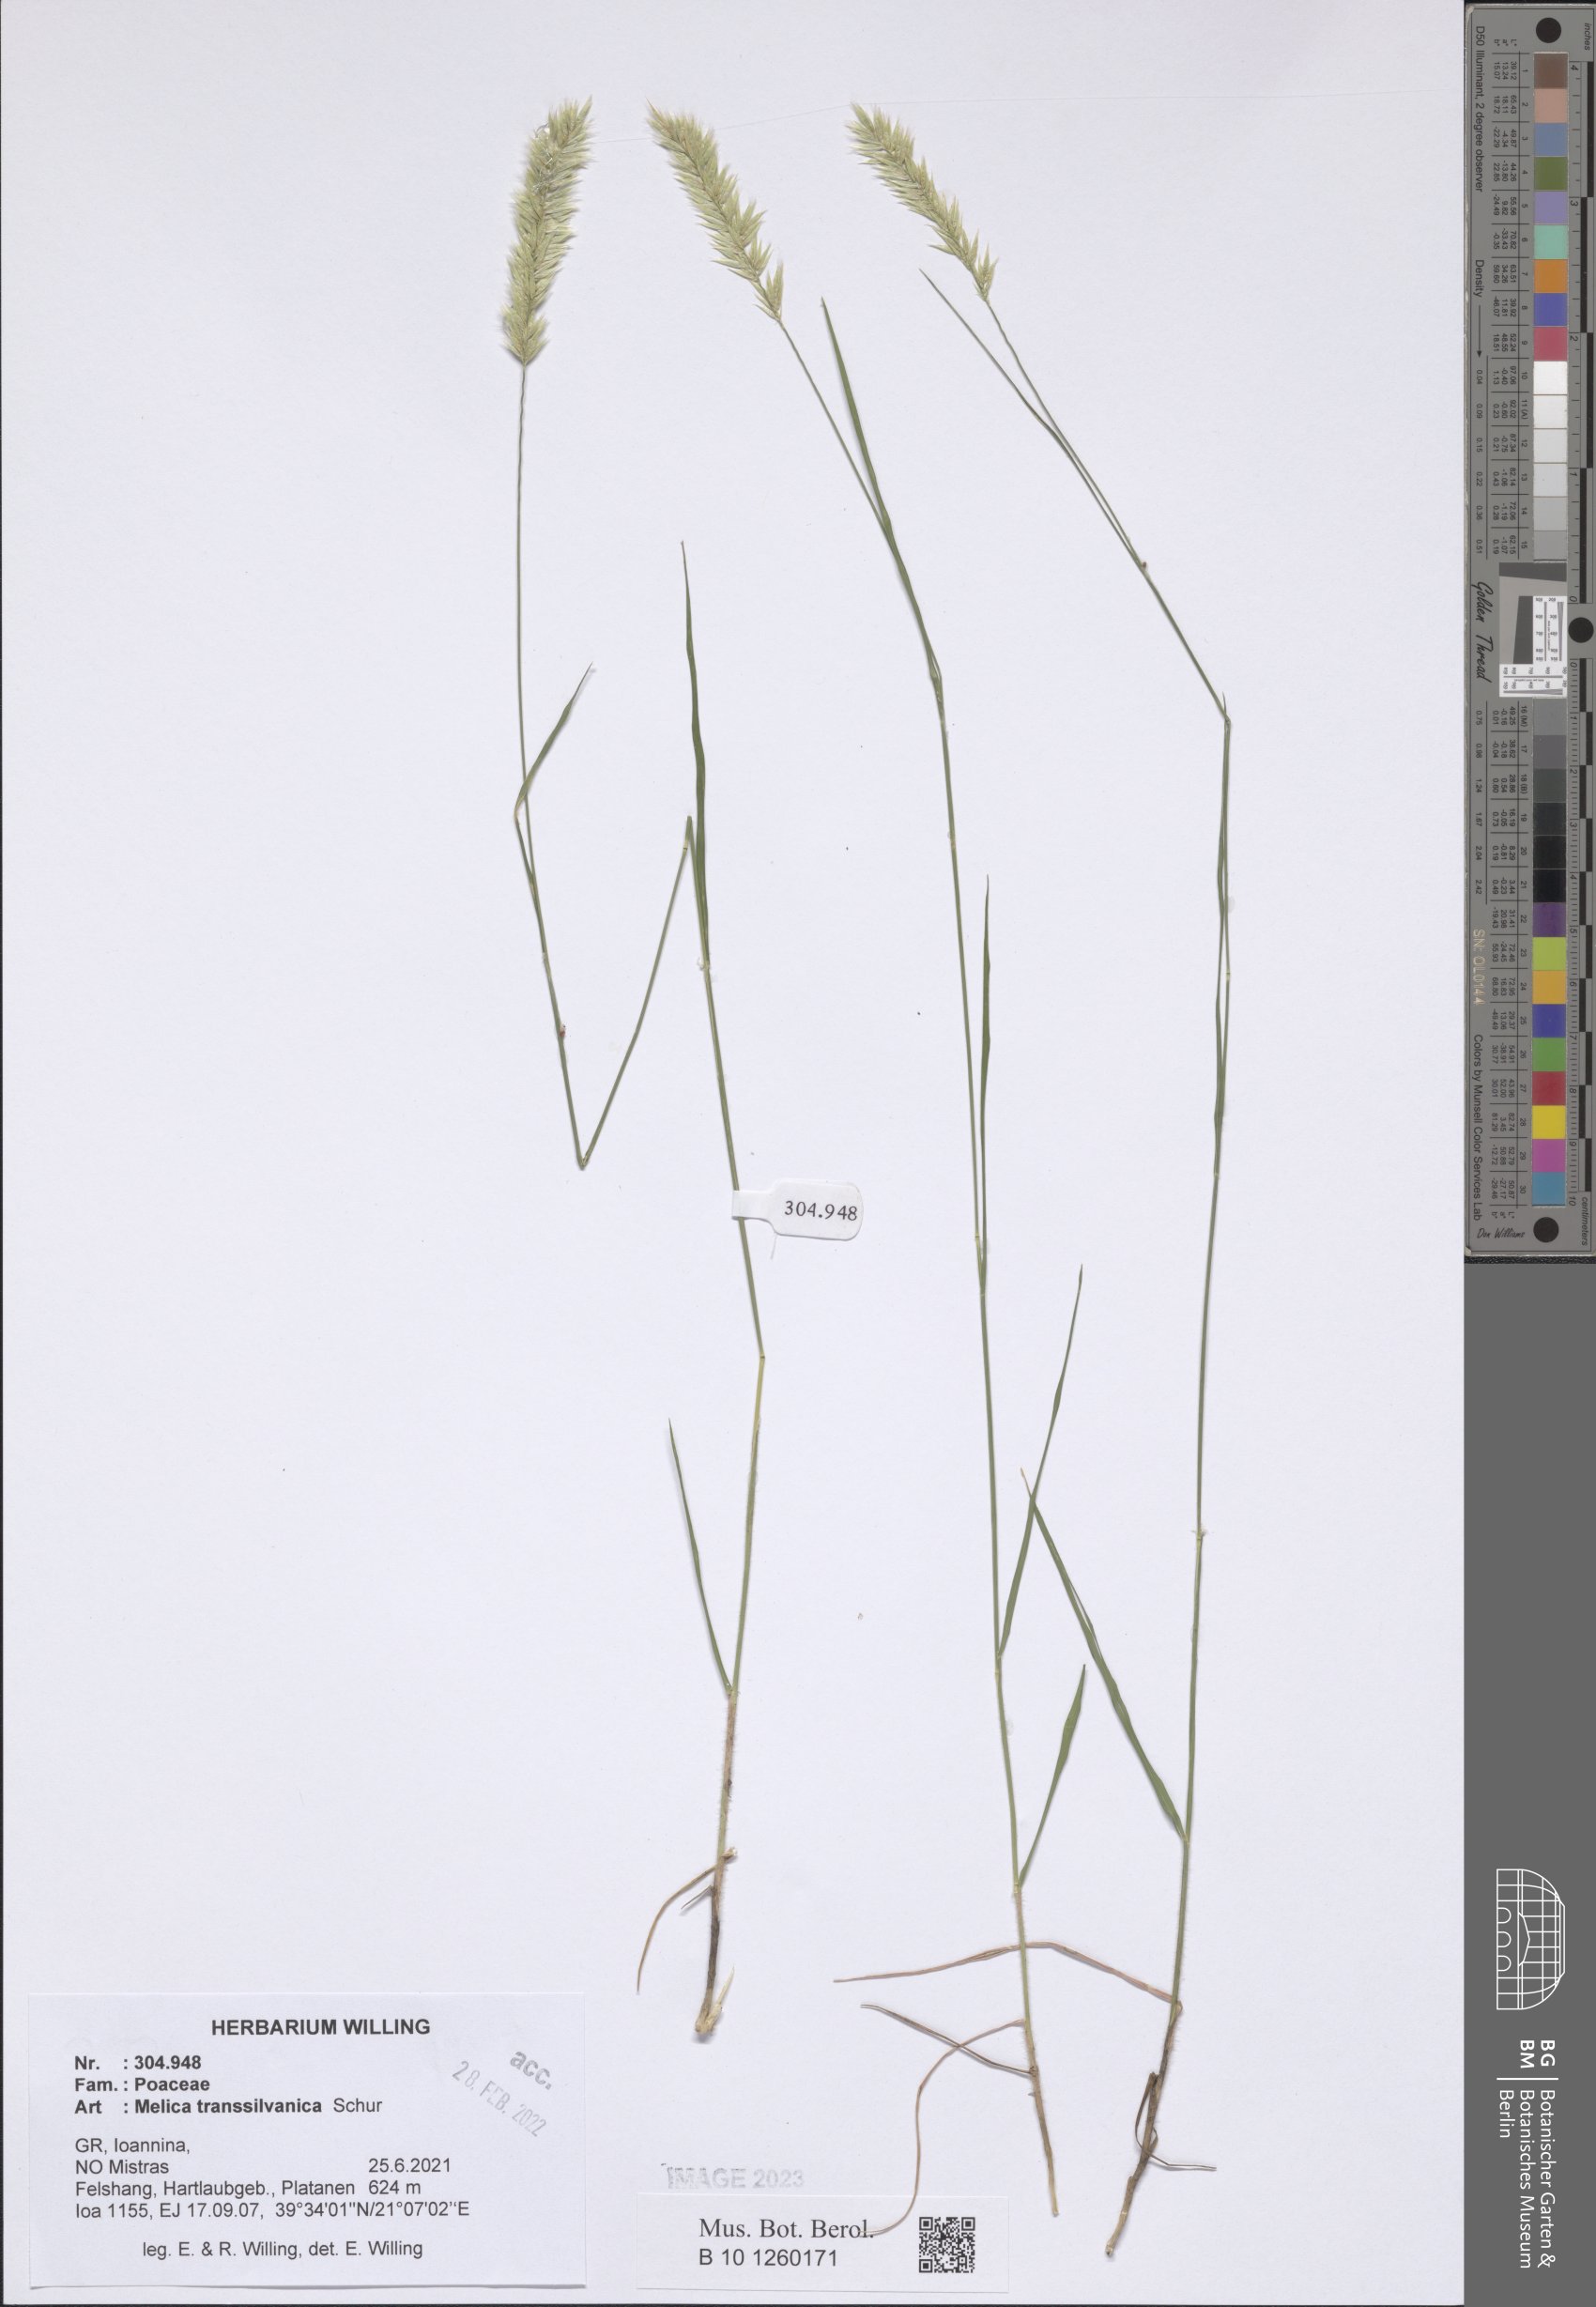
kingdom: Plantae
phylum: Tracheophyta
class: Liliopsida
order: Poales
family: Poaceae
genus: Melica
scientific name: Melica transsilvanica
